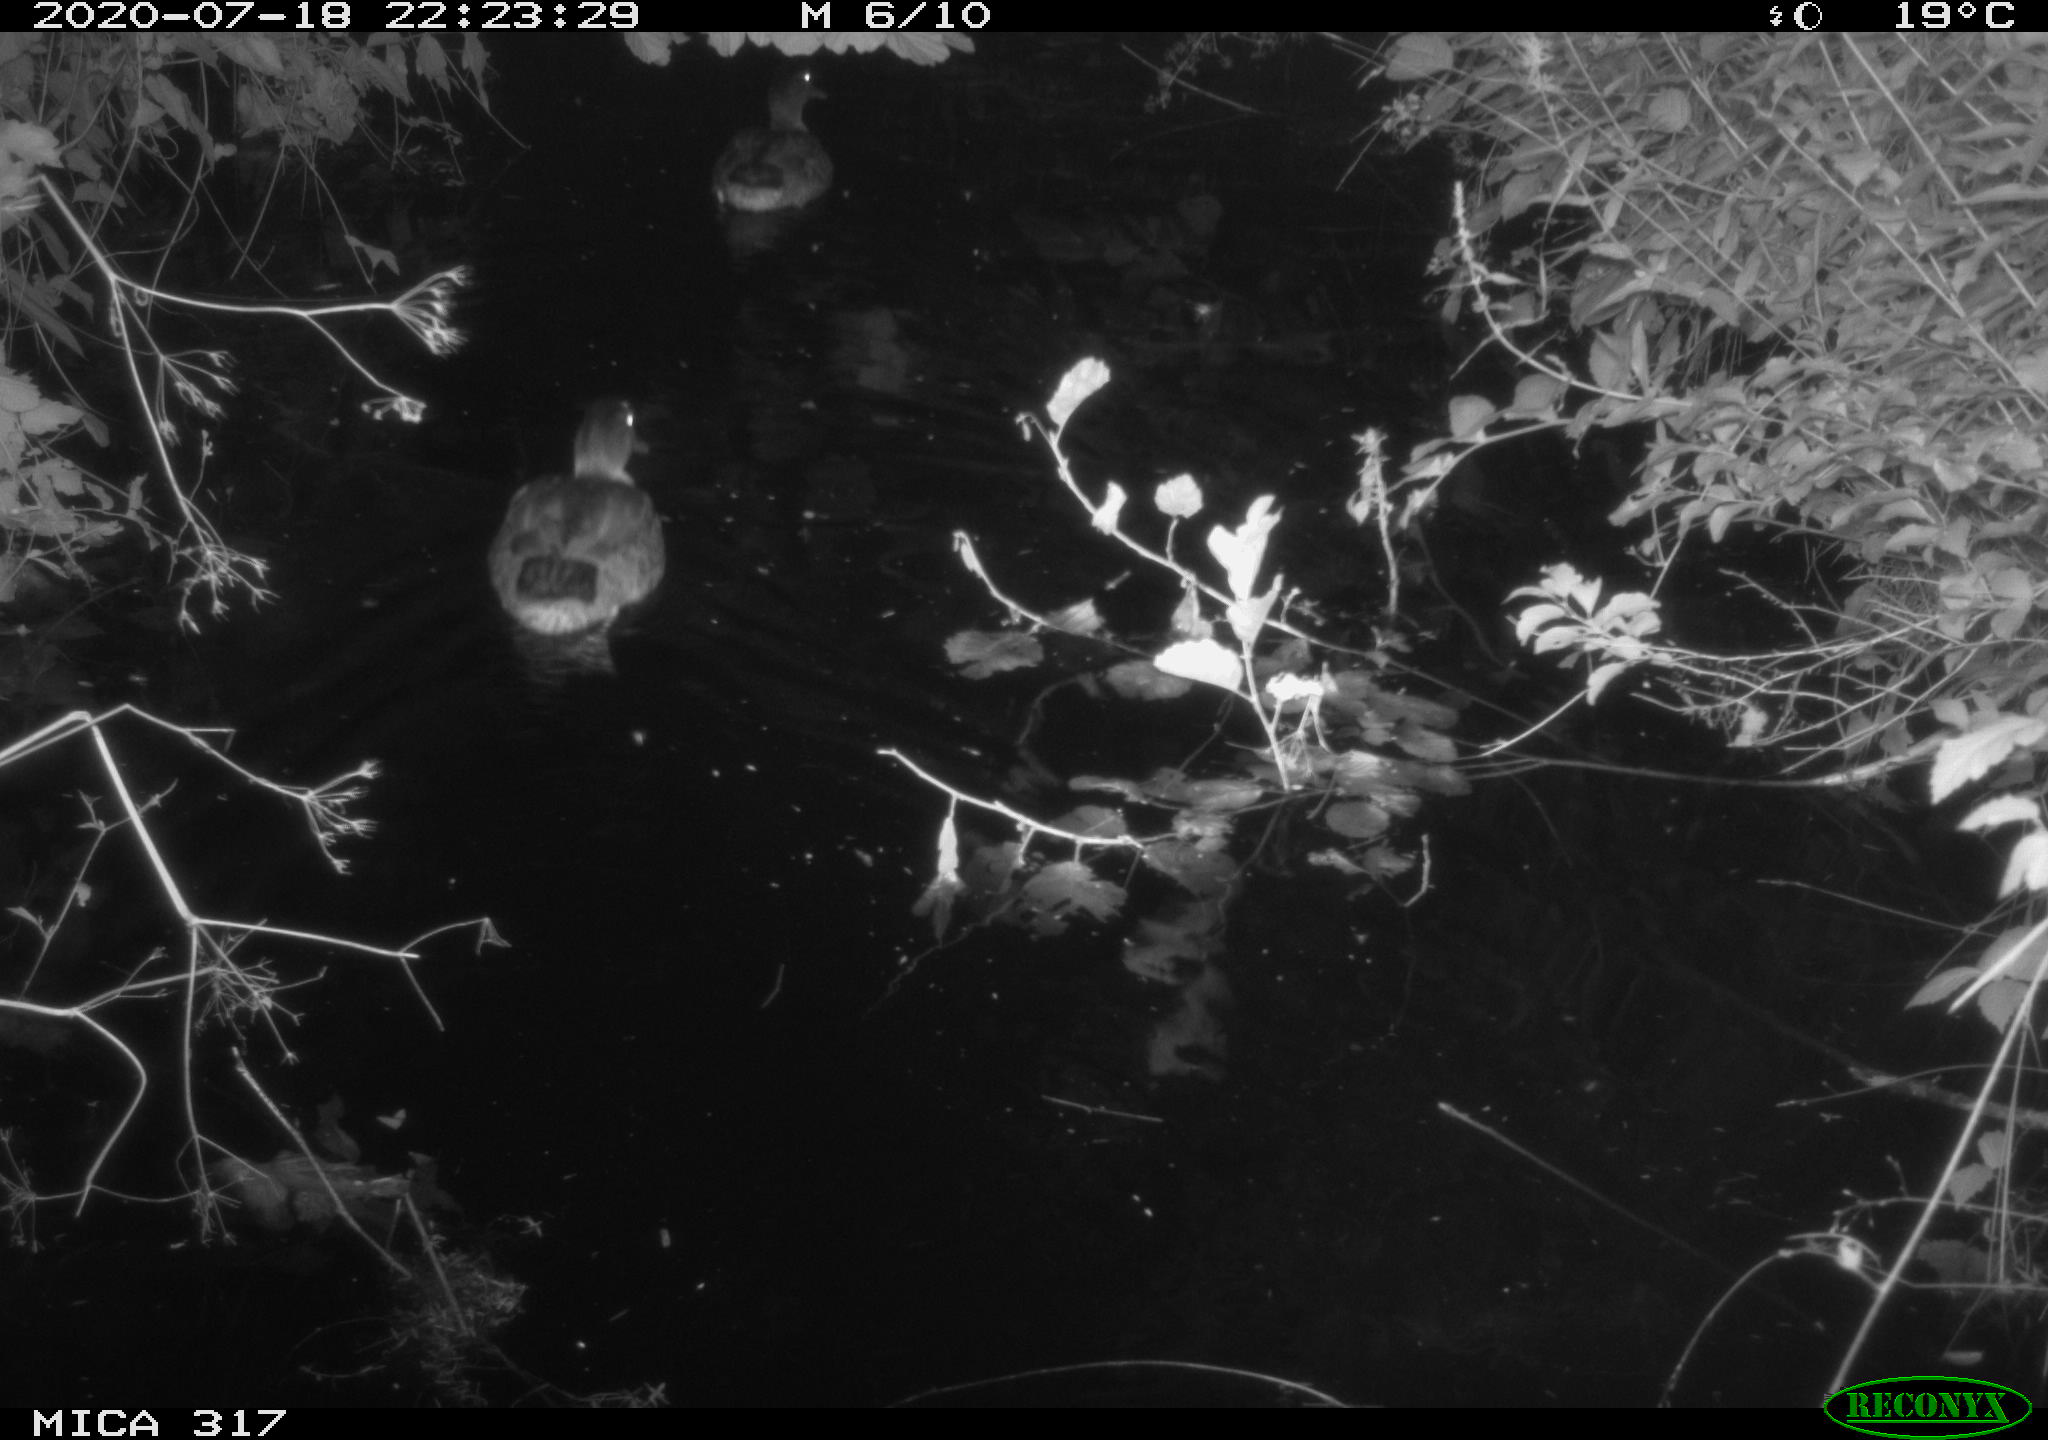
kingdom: Animalia
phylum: Chordata
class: Aves
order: Anseriformes
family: Anatidae
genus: Anas
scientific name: Anas platyrhynchos
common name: Mallard
